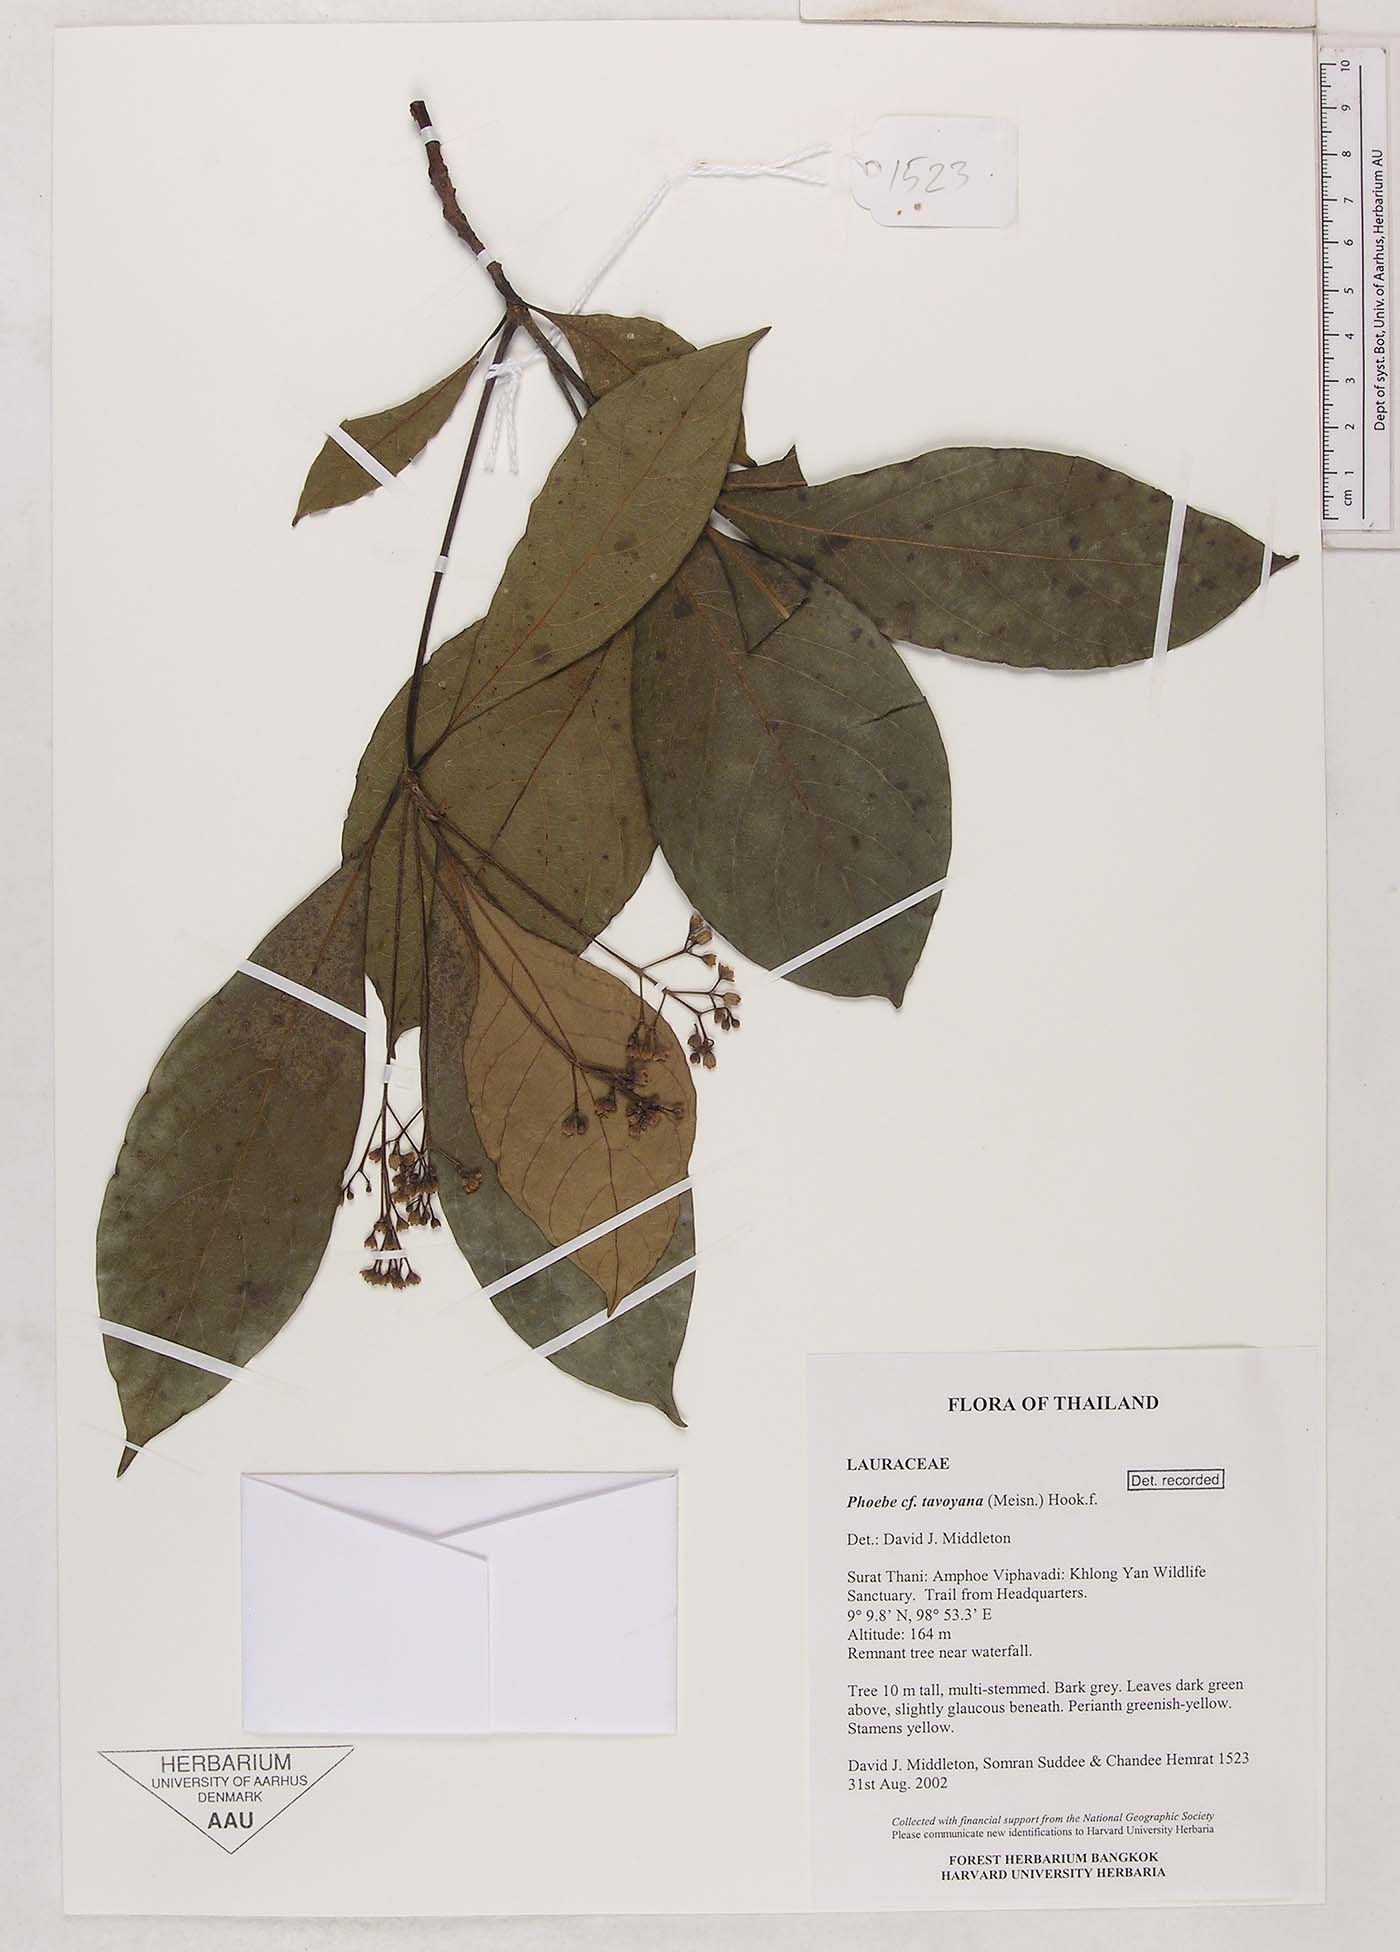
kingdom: Plantae
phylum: Tracheophyta
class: Magnoliopsida
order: Laurales
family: Lauraceae
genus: Phoebe
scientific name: Phoebe tavoyana
